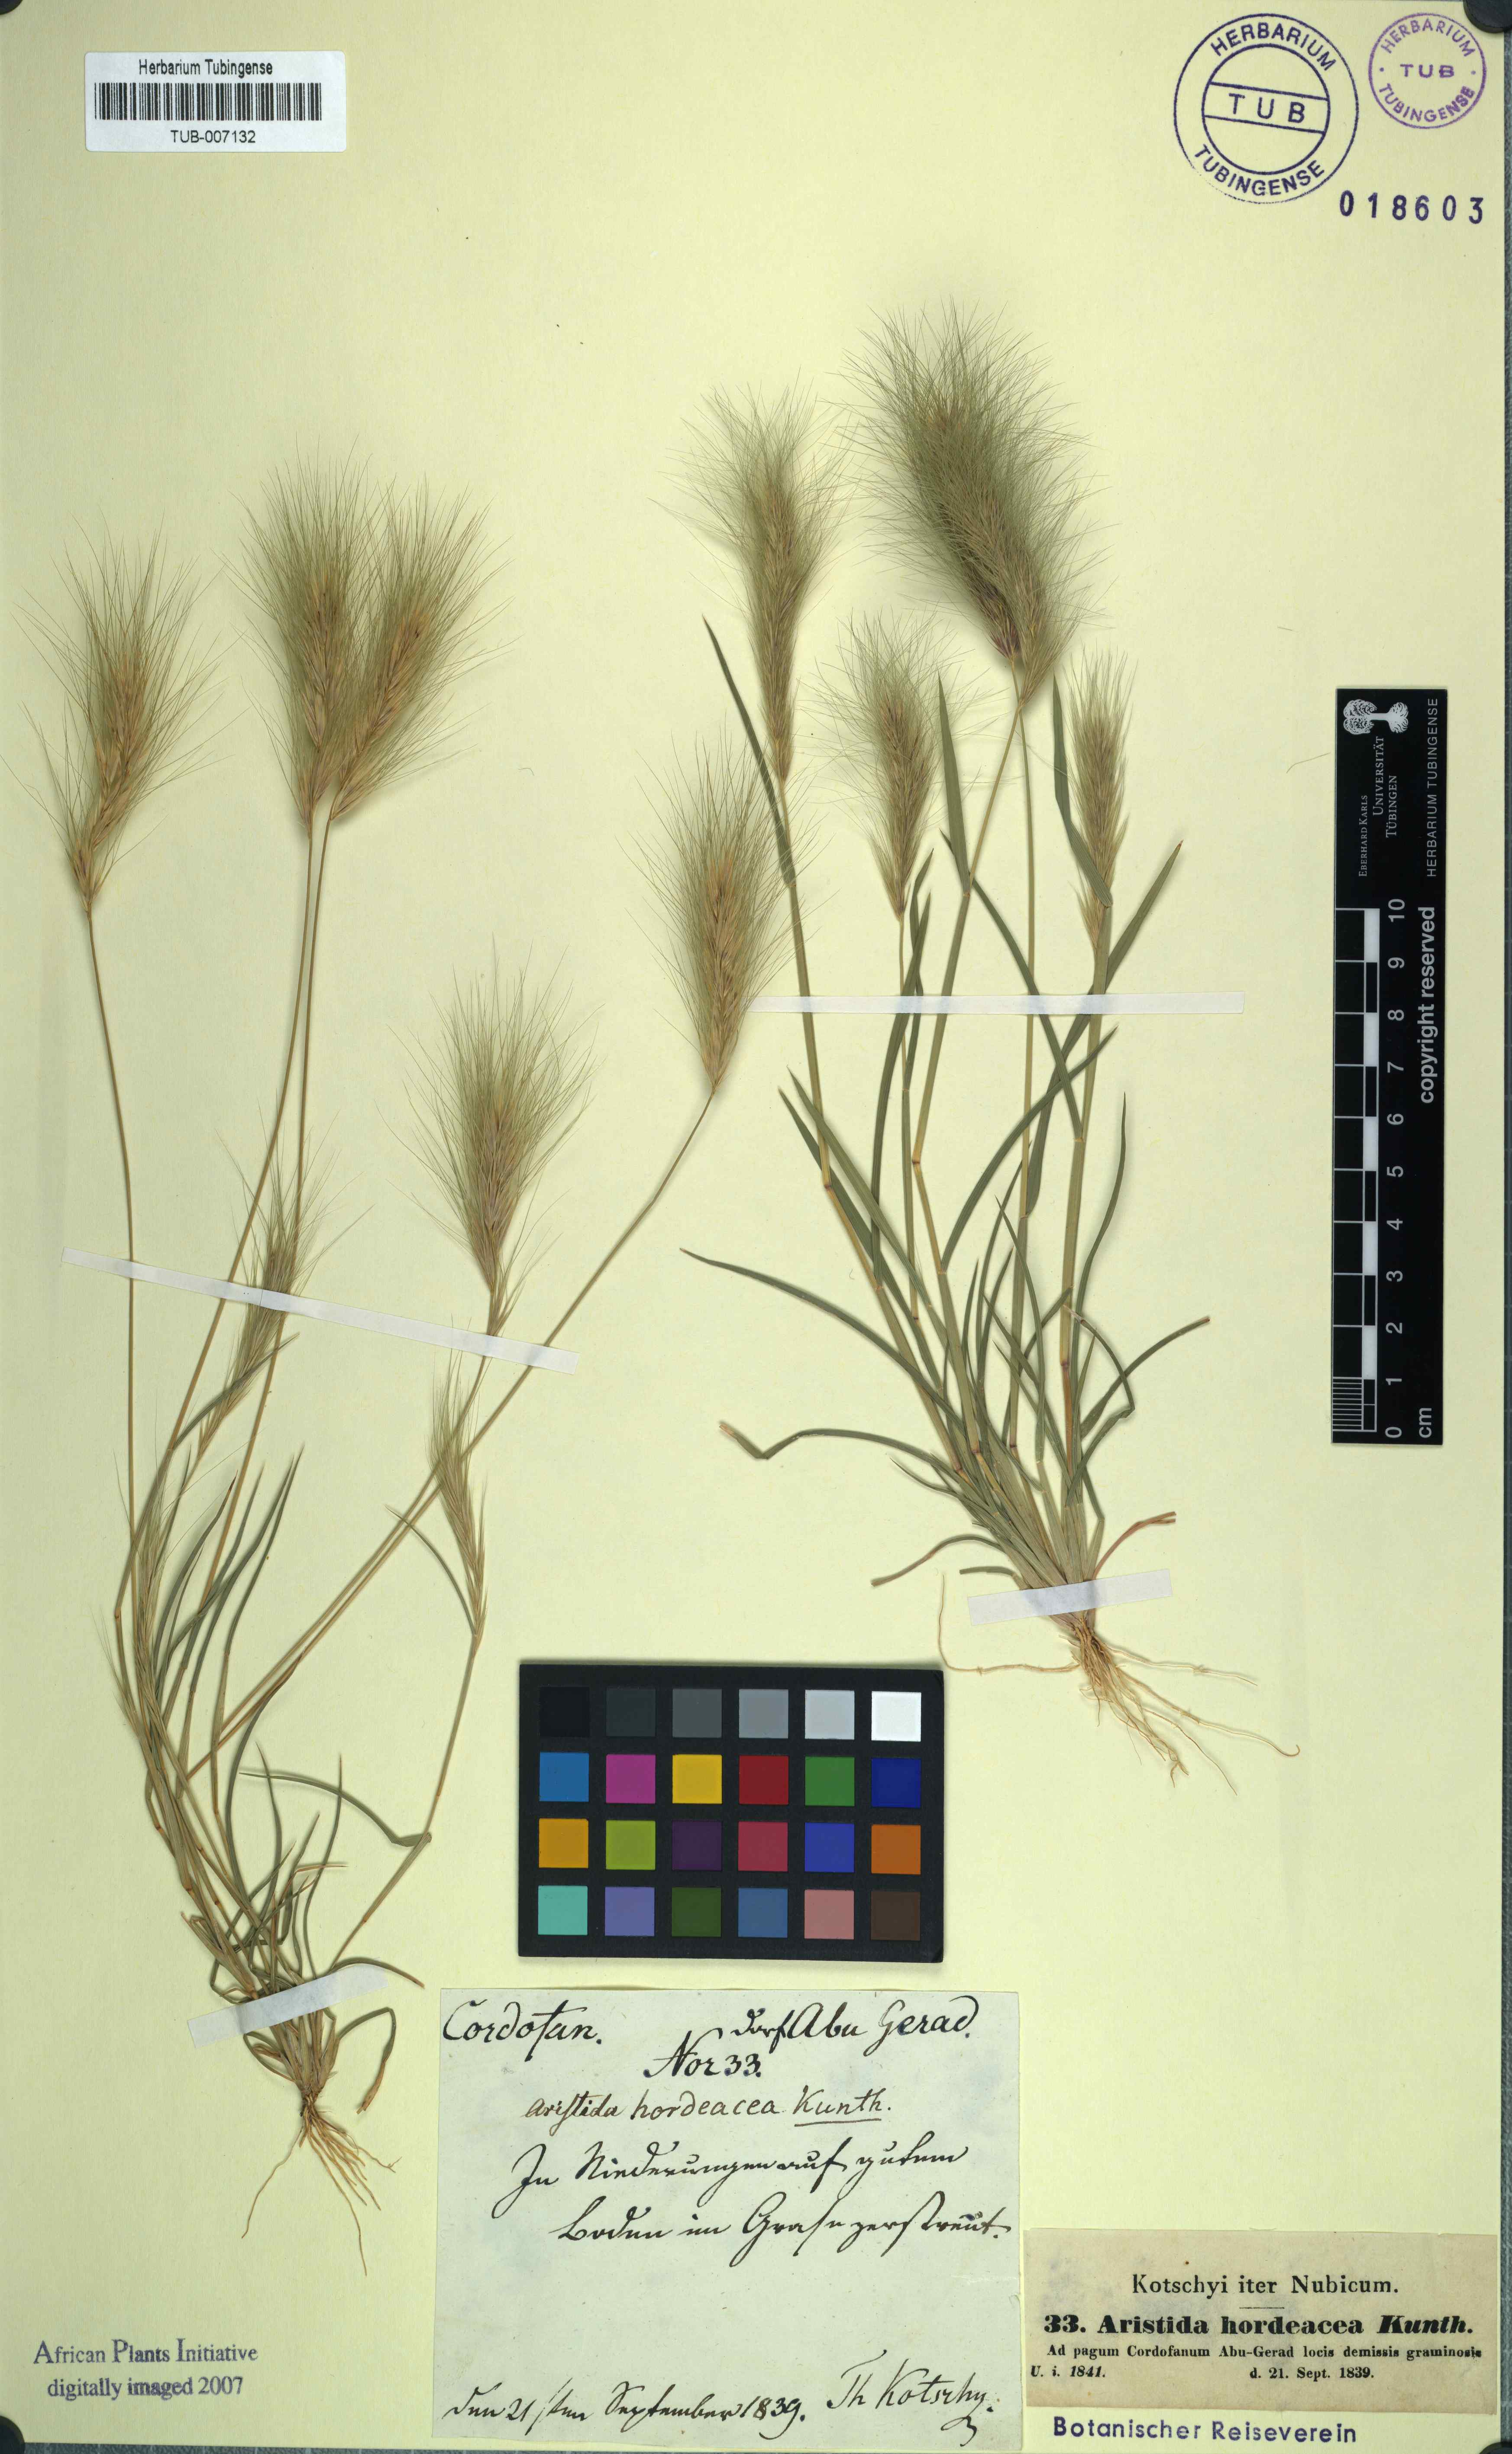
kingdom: Plantae
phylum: Tracheophyta
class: Liliopsida
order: Poales
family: Poaceae
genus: Aristida
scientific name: Aristida hordeacea
